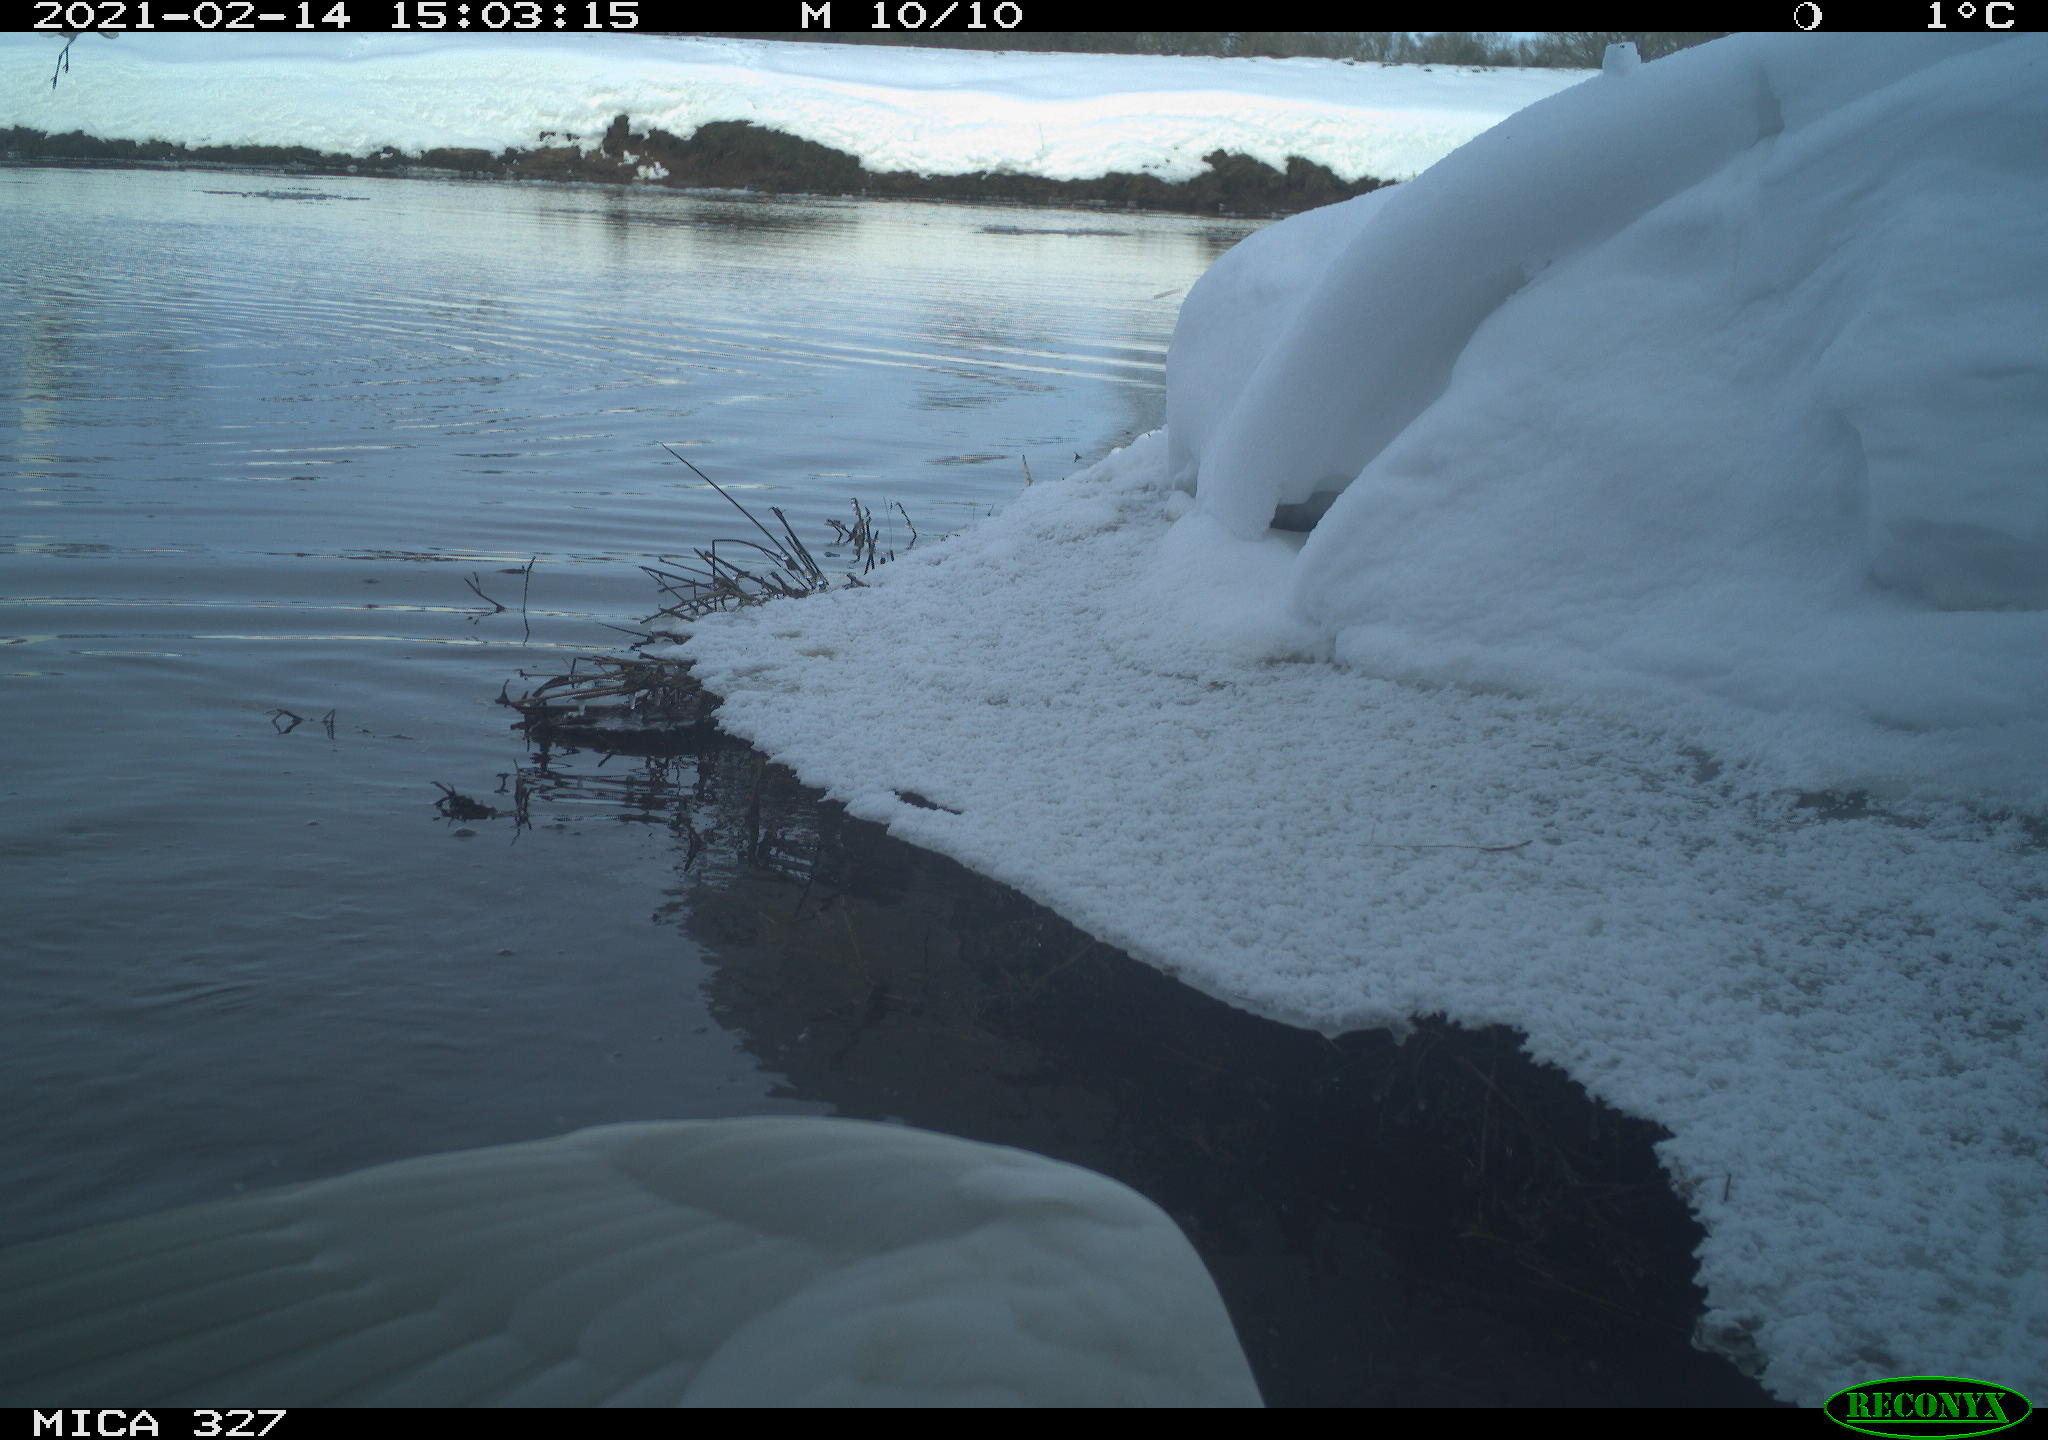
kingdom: Animalia
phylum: Chordata
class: Aves
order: Suliformes
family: Phalacrocoracidae
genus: Phalacrocorax
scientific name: Phalacrocorax carbo
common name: Great cormorant
